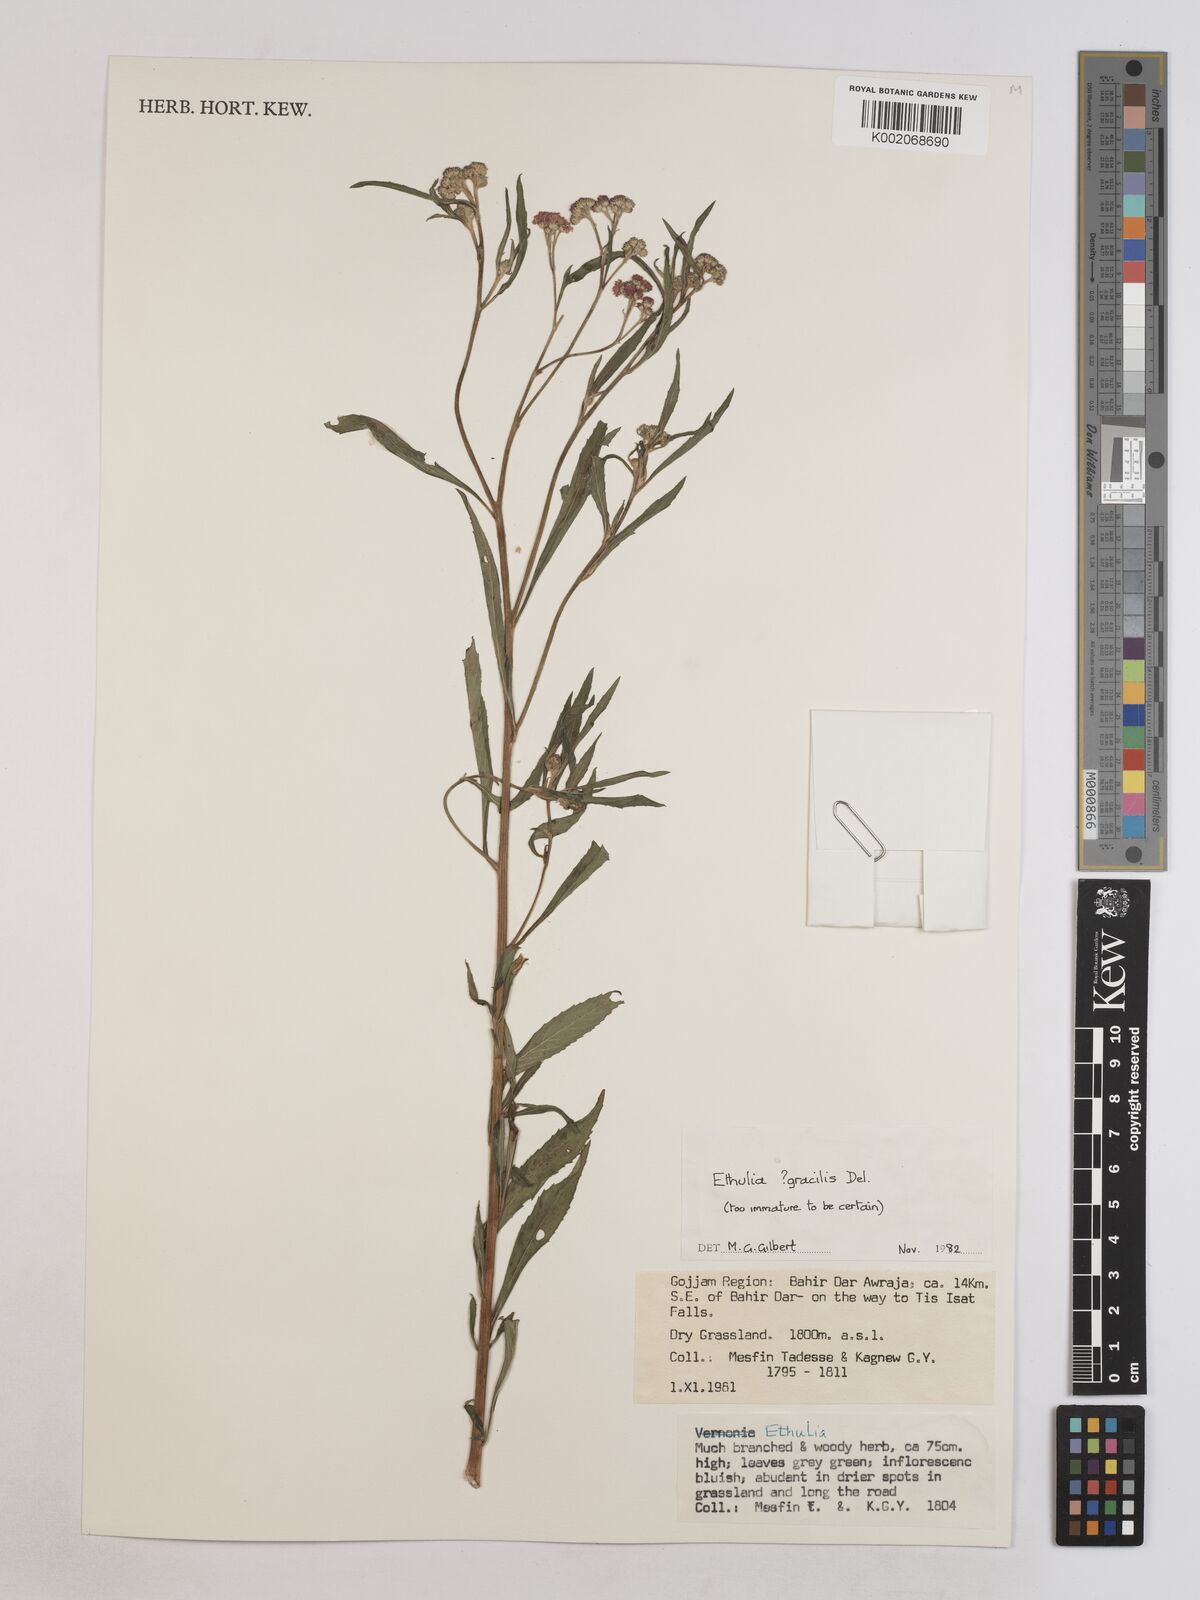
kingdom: Plantae
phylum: Tracheophyta
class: Magnoliopsida
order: Asterales
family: Asteraceae
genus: Ethulia
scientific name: Ethulia gracilis
